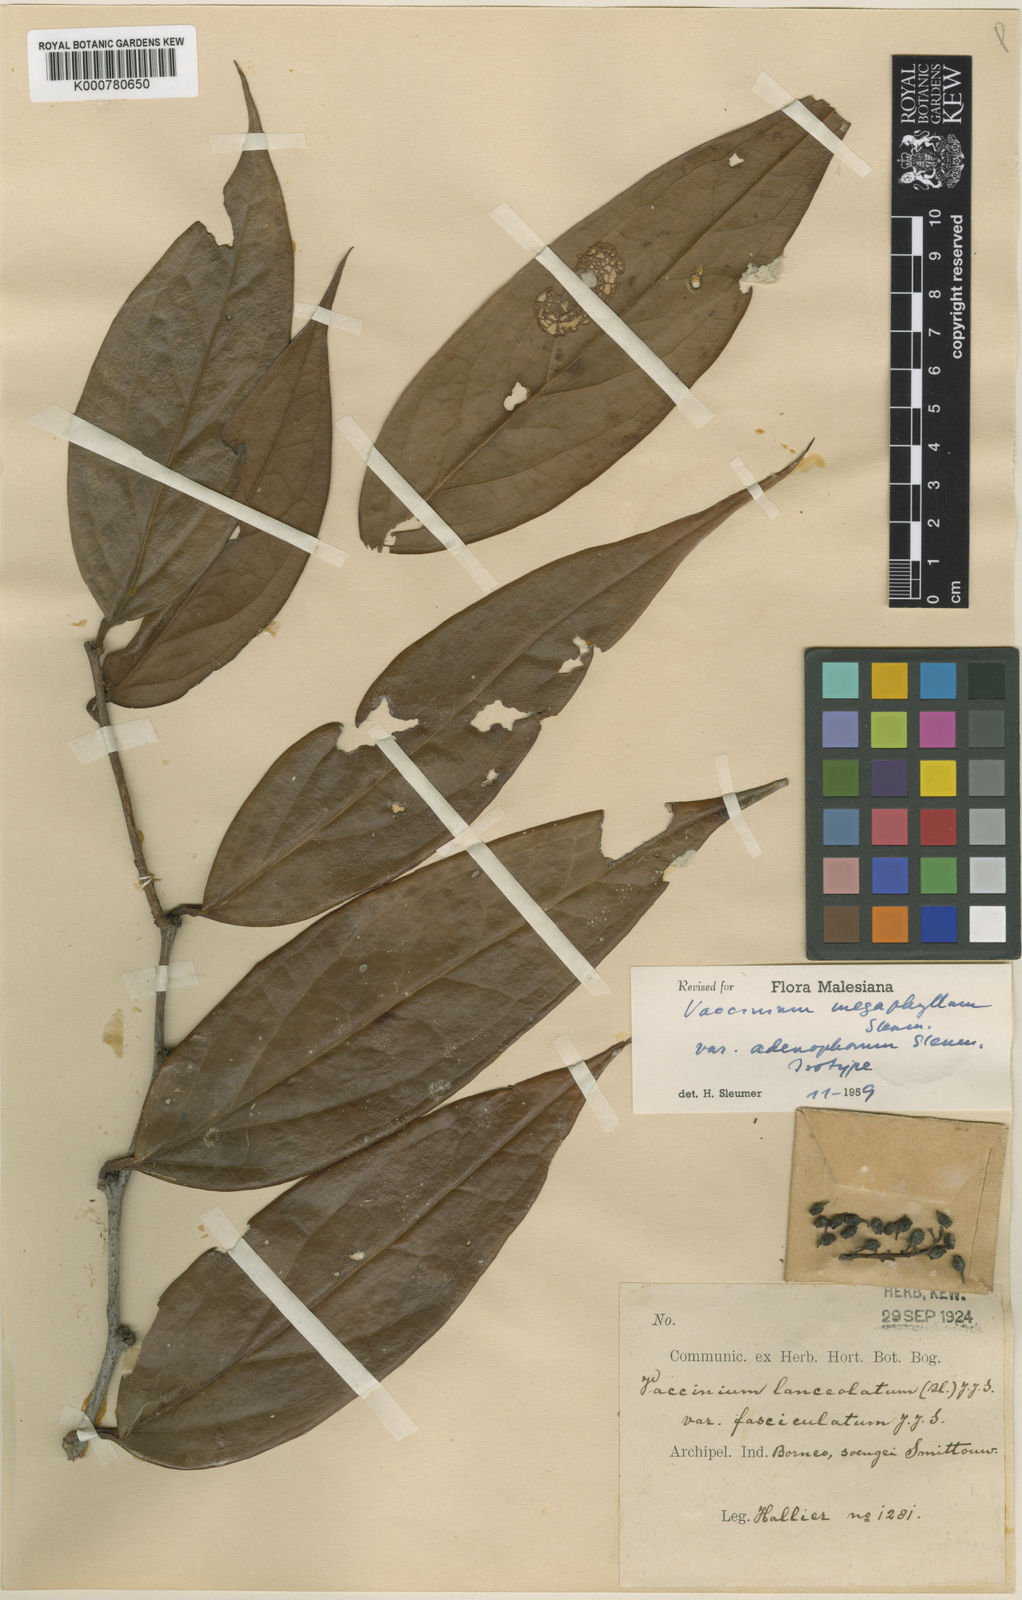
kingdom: Plantae
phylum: Tracheophyta
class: Magnoliopsida
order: Ericales
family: Ericaceae
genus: Rigiolepis
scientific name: Rigiolepis macrophylla
